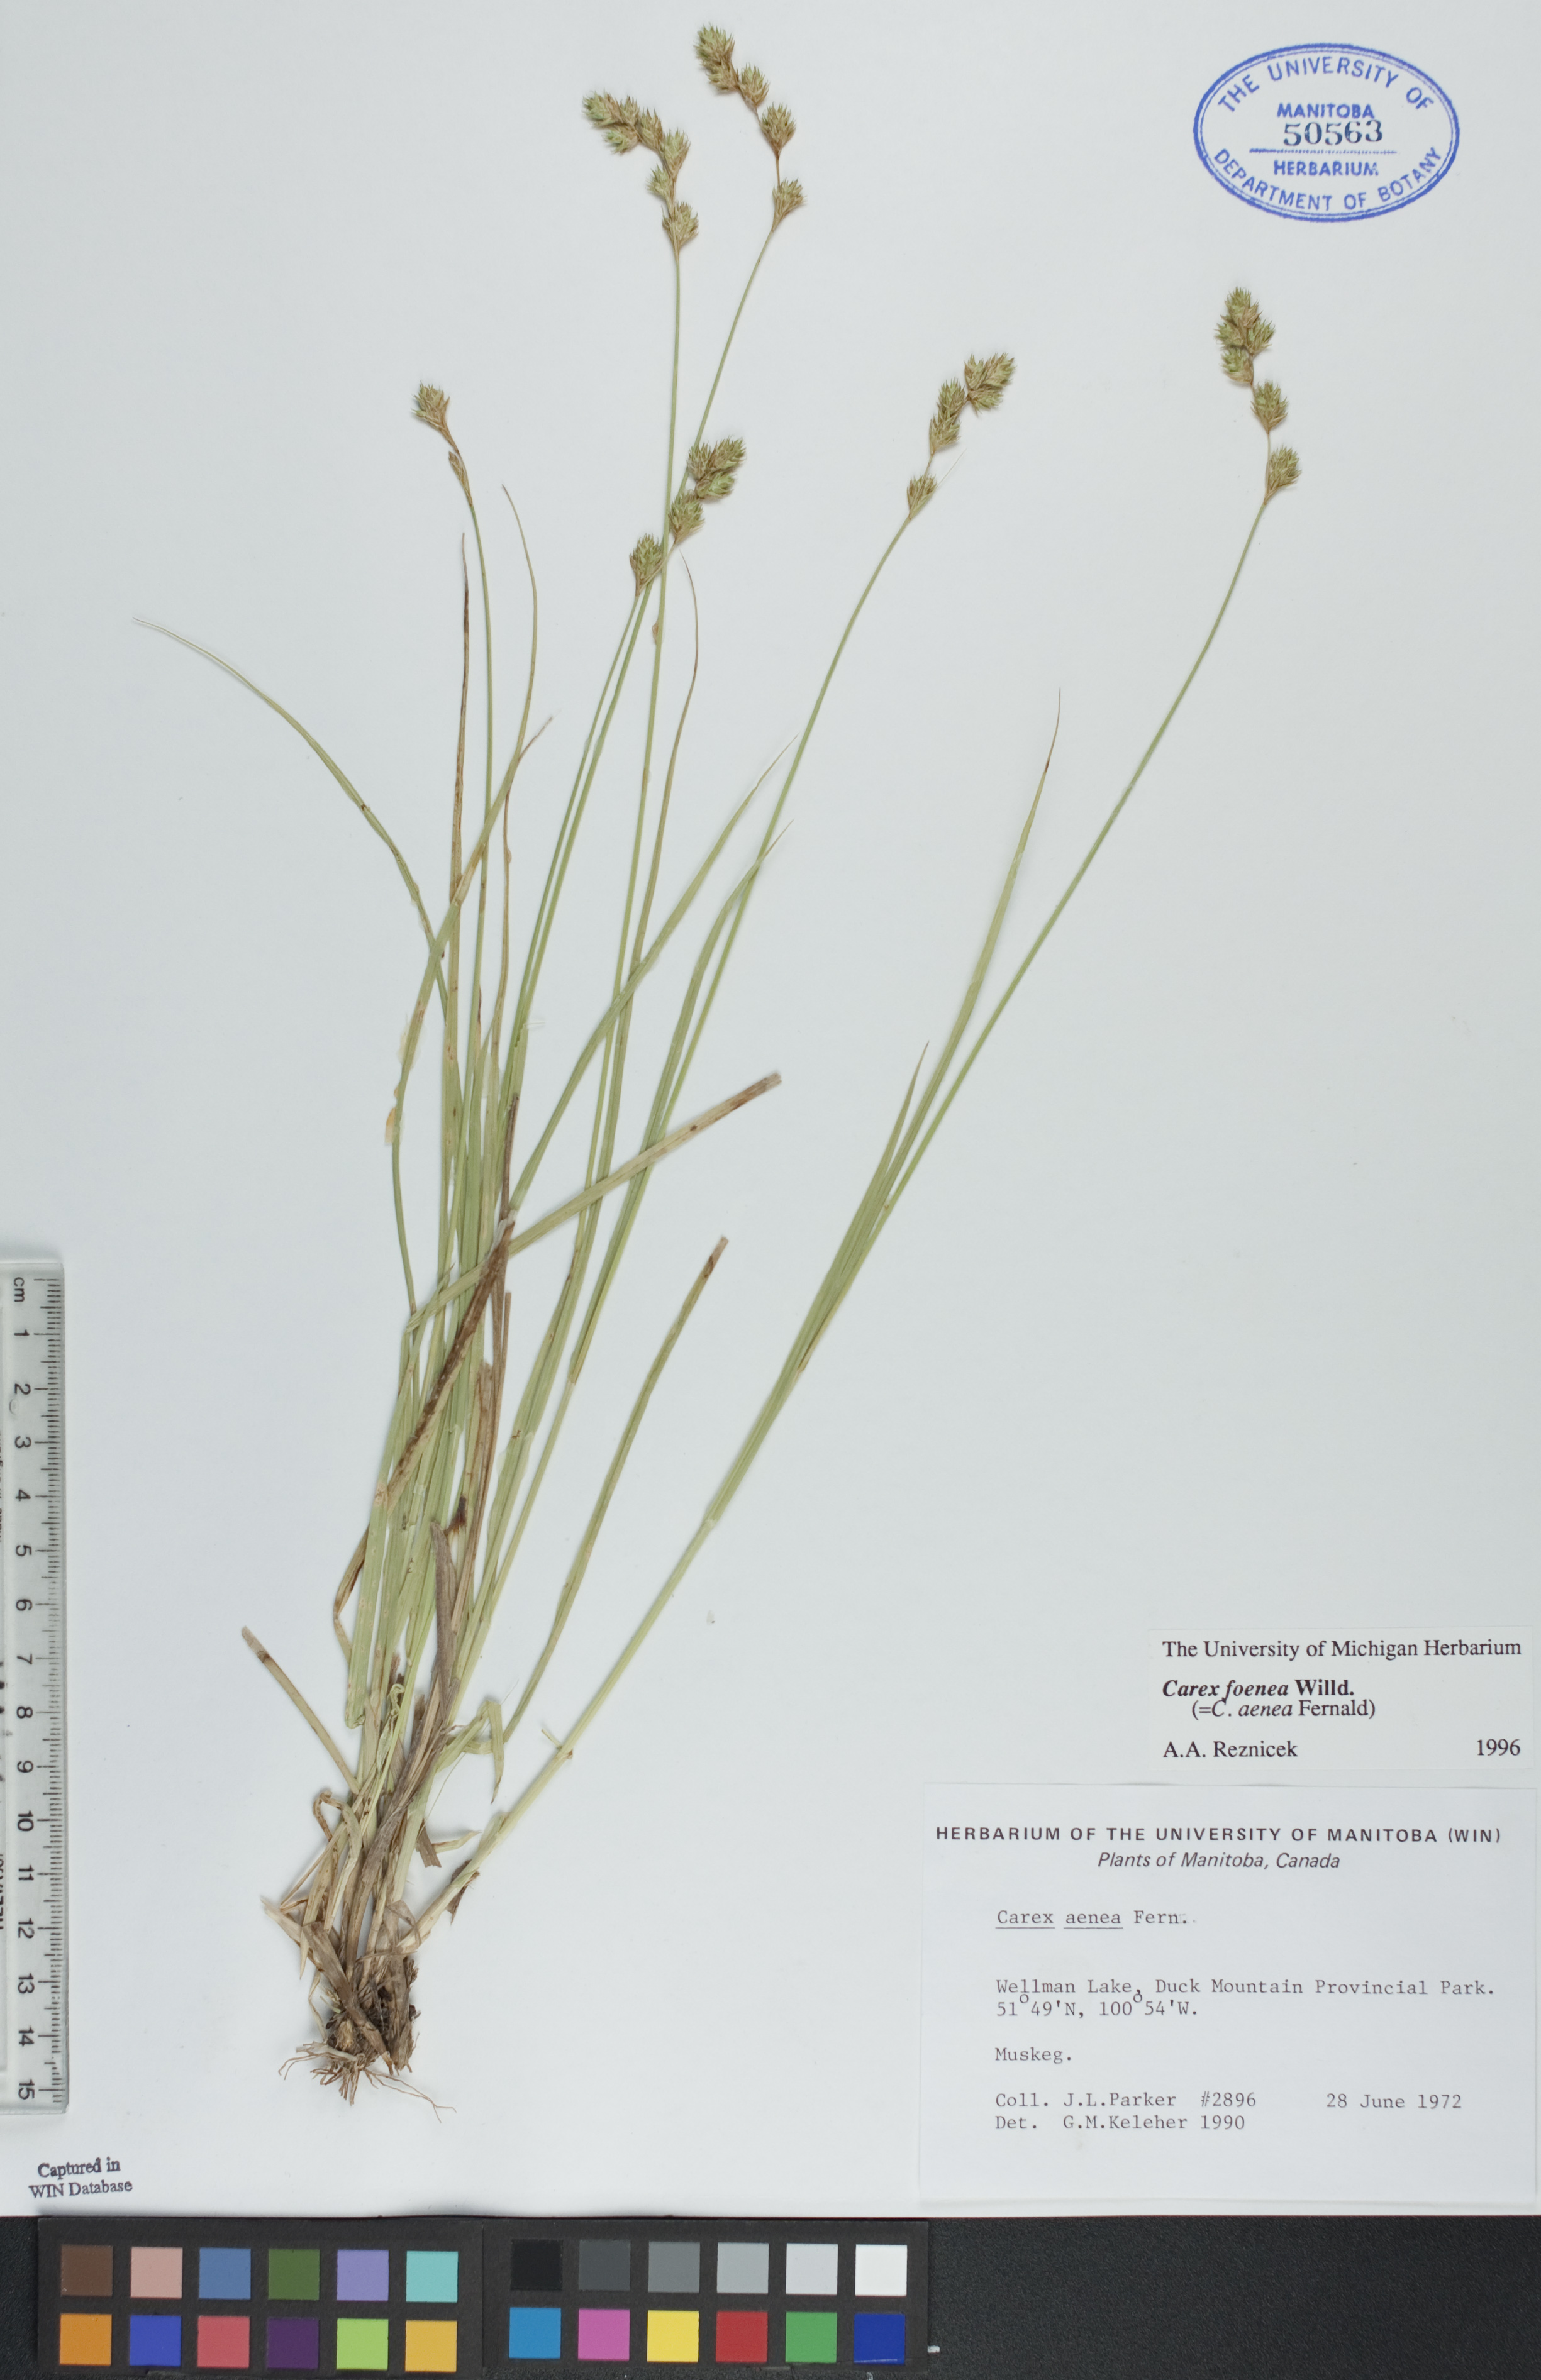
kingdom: Plantae
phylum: Tracheophyta
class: Liliopsida
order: Poales
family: Cyperaceae
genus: Carex
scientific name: Carex foenea
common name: Bronze sedge
